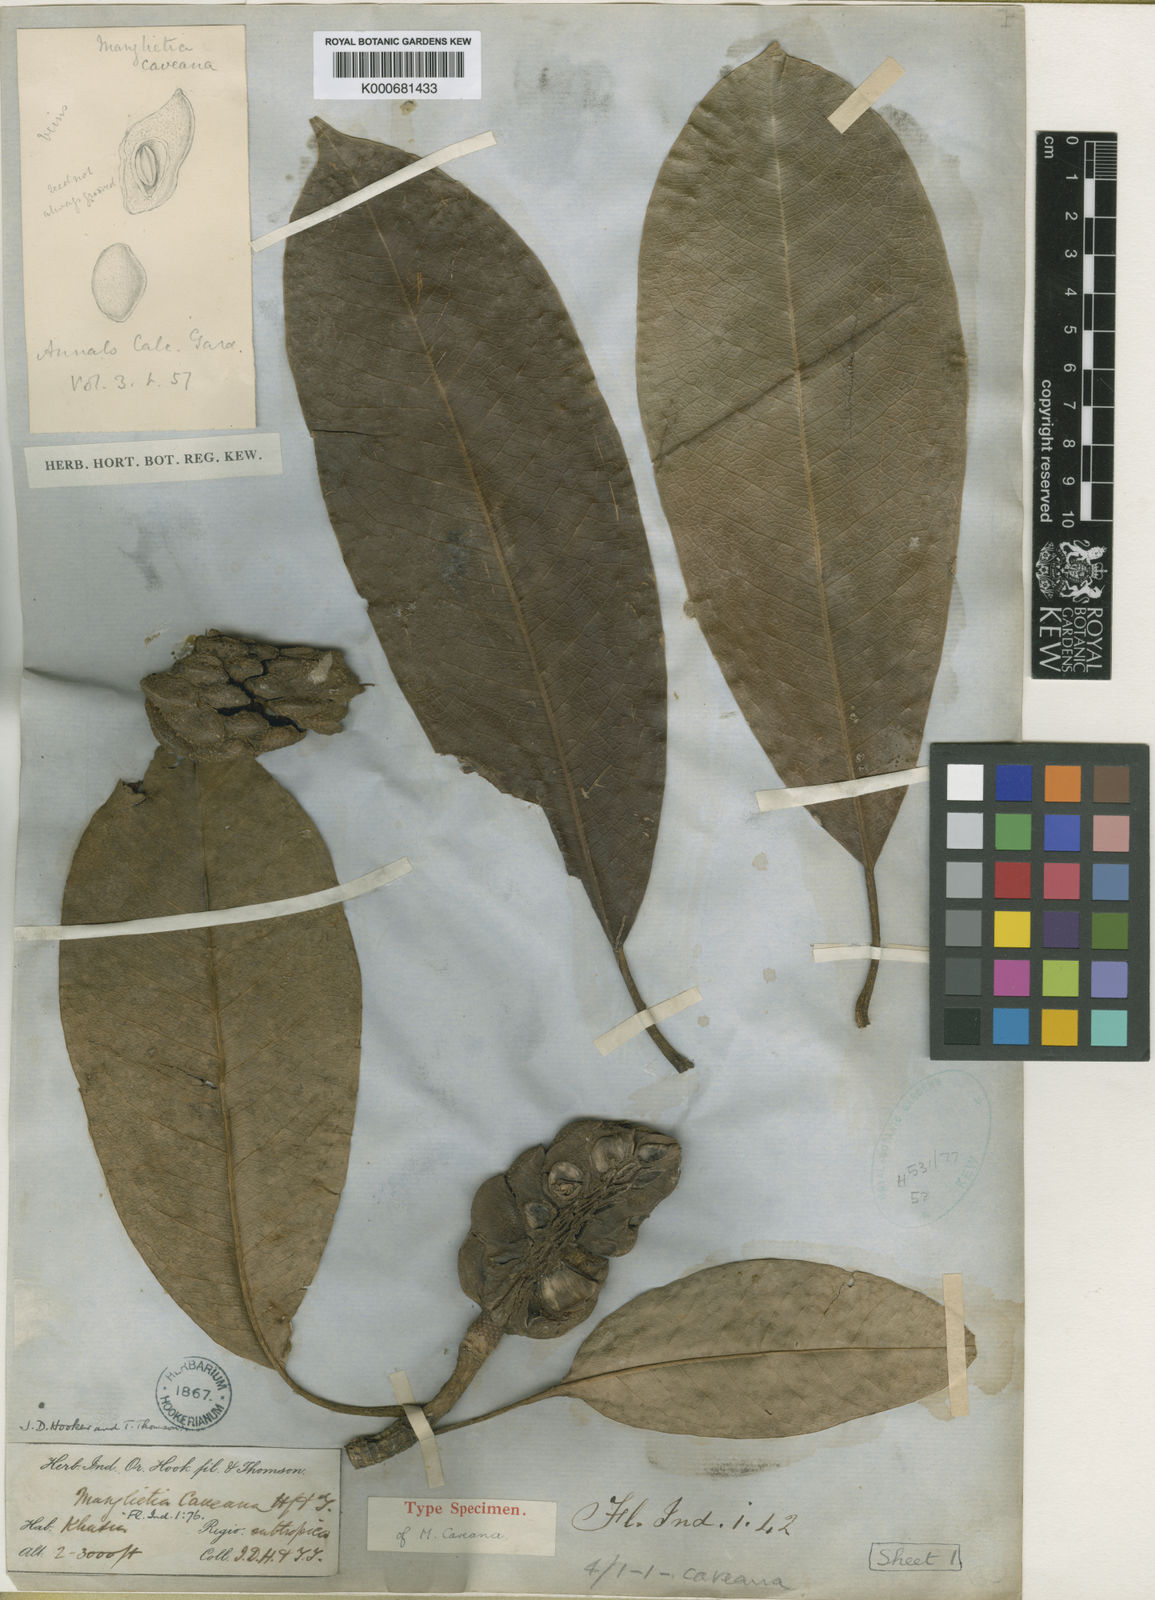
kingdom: Plantae
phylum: Tracheophyta
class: Magnoliopsida
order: Magnoliales
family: Magnoliaceae
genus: Magnolia
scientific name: Magnolia caveana
